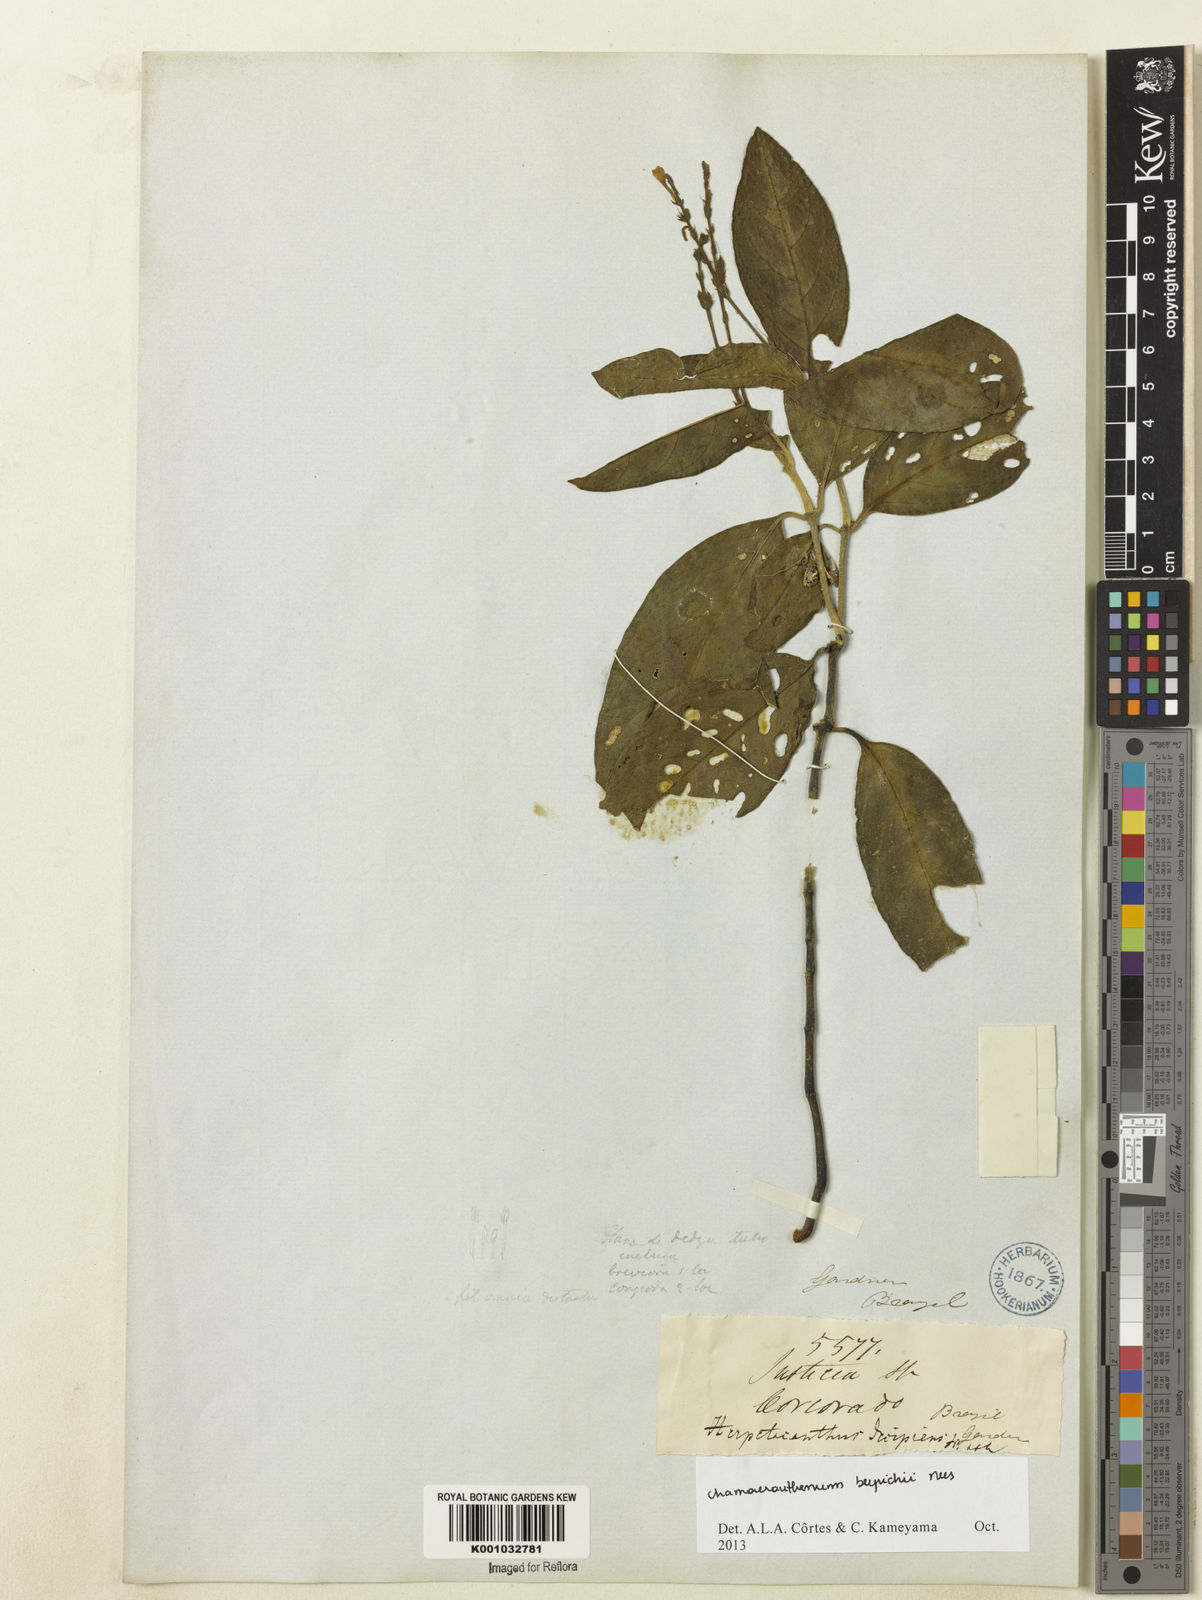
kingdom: Plantae
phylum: Tracheophyta
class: Magnoliopsida
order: Lamiales
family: Acanthaceae
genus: Chamaeranthemum
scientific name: Chamaeranthemum beyrichii
